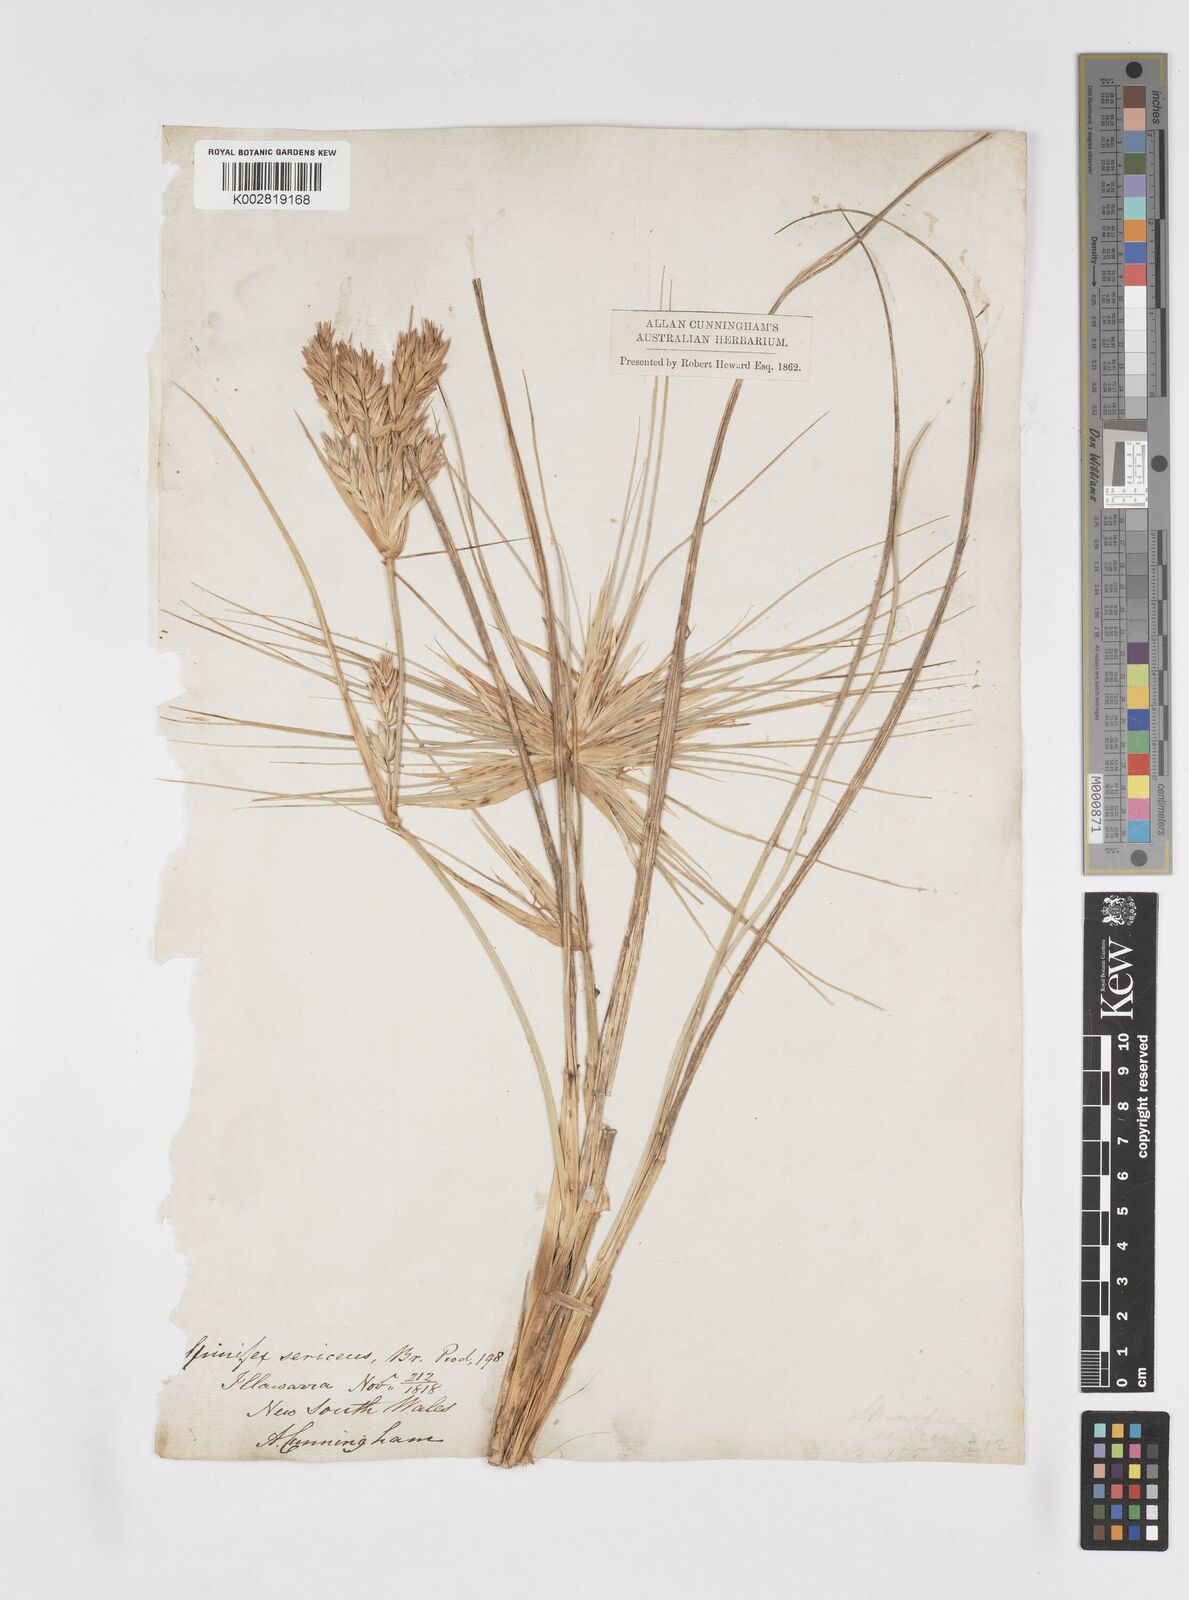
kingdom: Plantae
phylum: Tracheophyta
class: Liliopsida
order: Poales
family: Poaceae
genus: Spinifex
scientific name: Spinifex hirsutus
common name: Hairy spinifex
